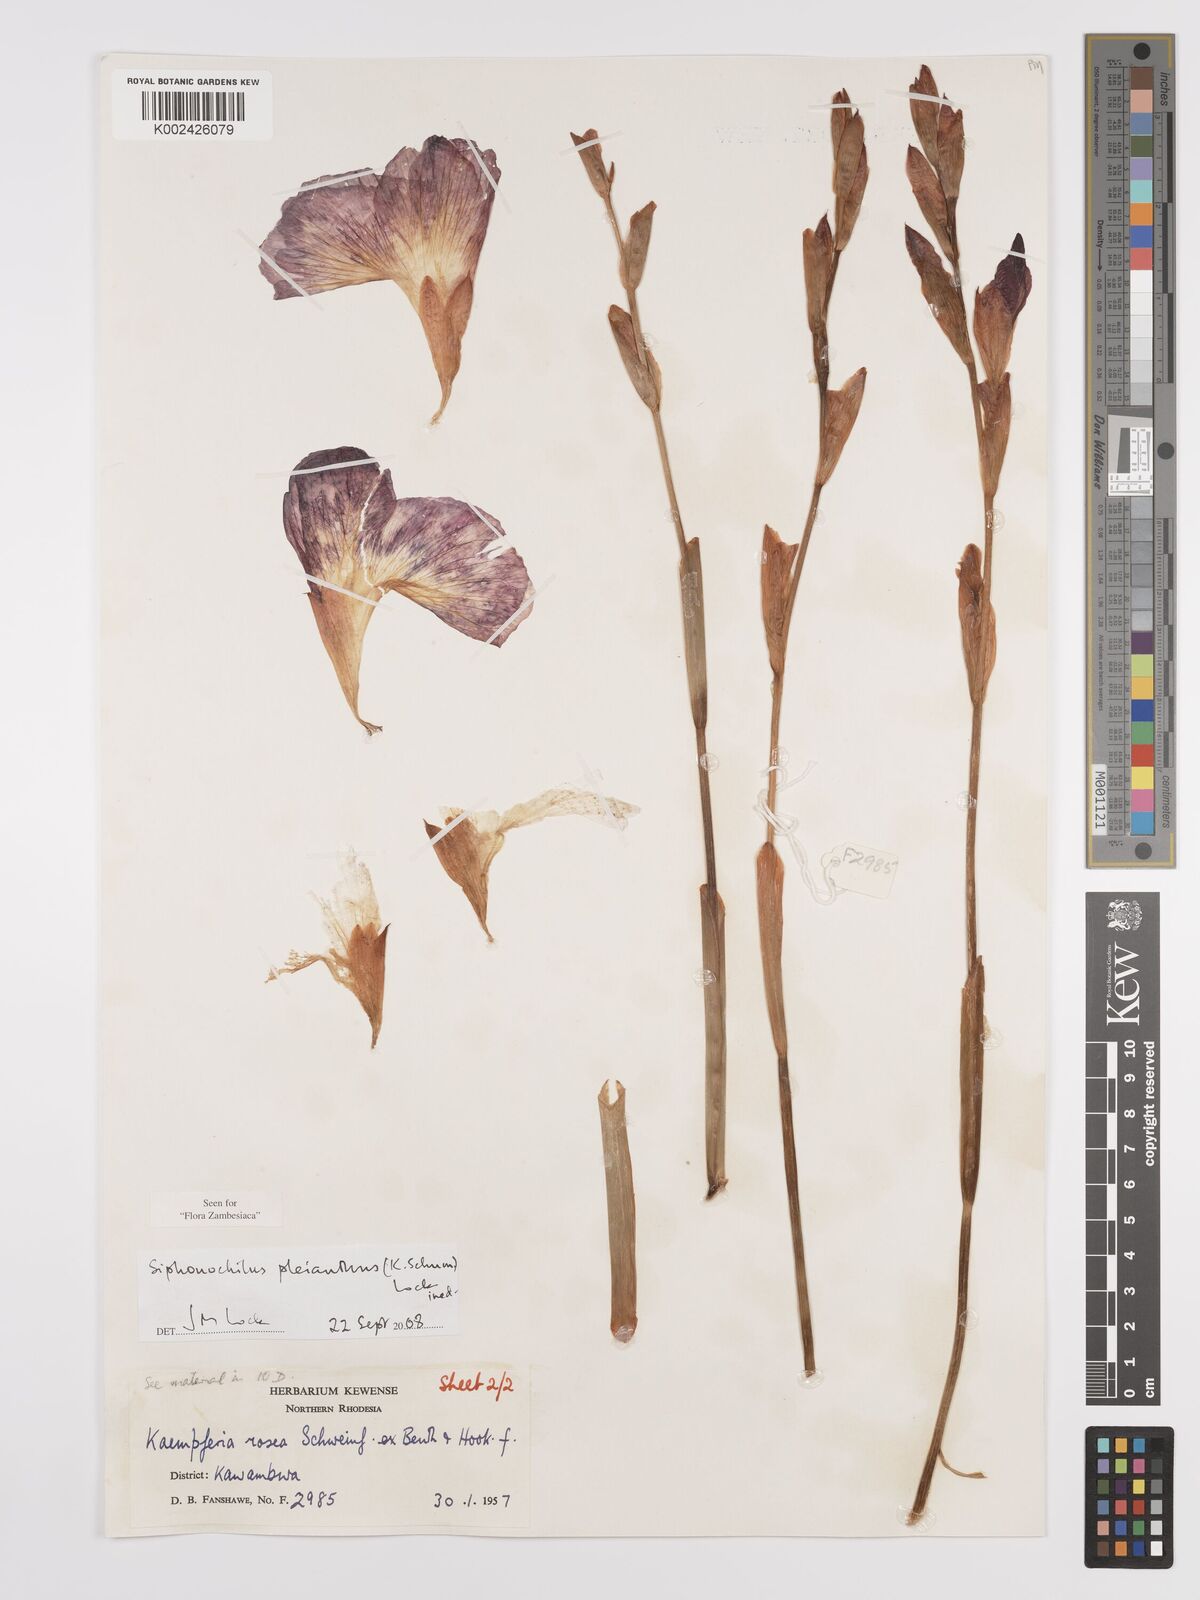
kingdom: Plantae
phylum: Tracheophyta
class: Liliopsida
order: Zingiberales
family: Zingiberaceae
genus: Siphonochilus
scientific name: Siphonochilus pleianthus
